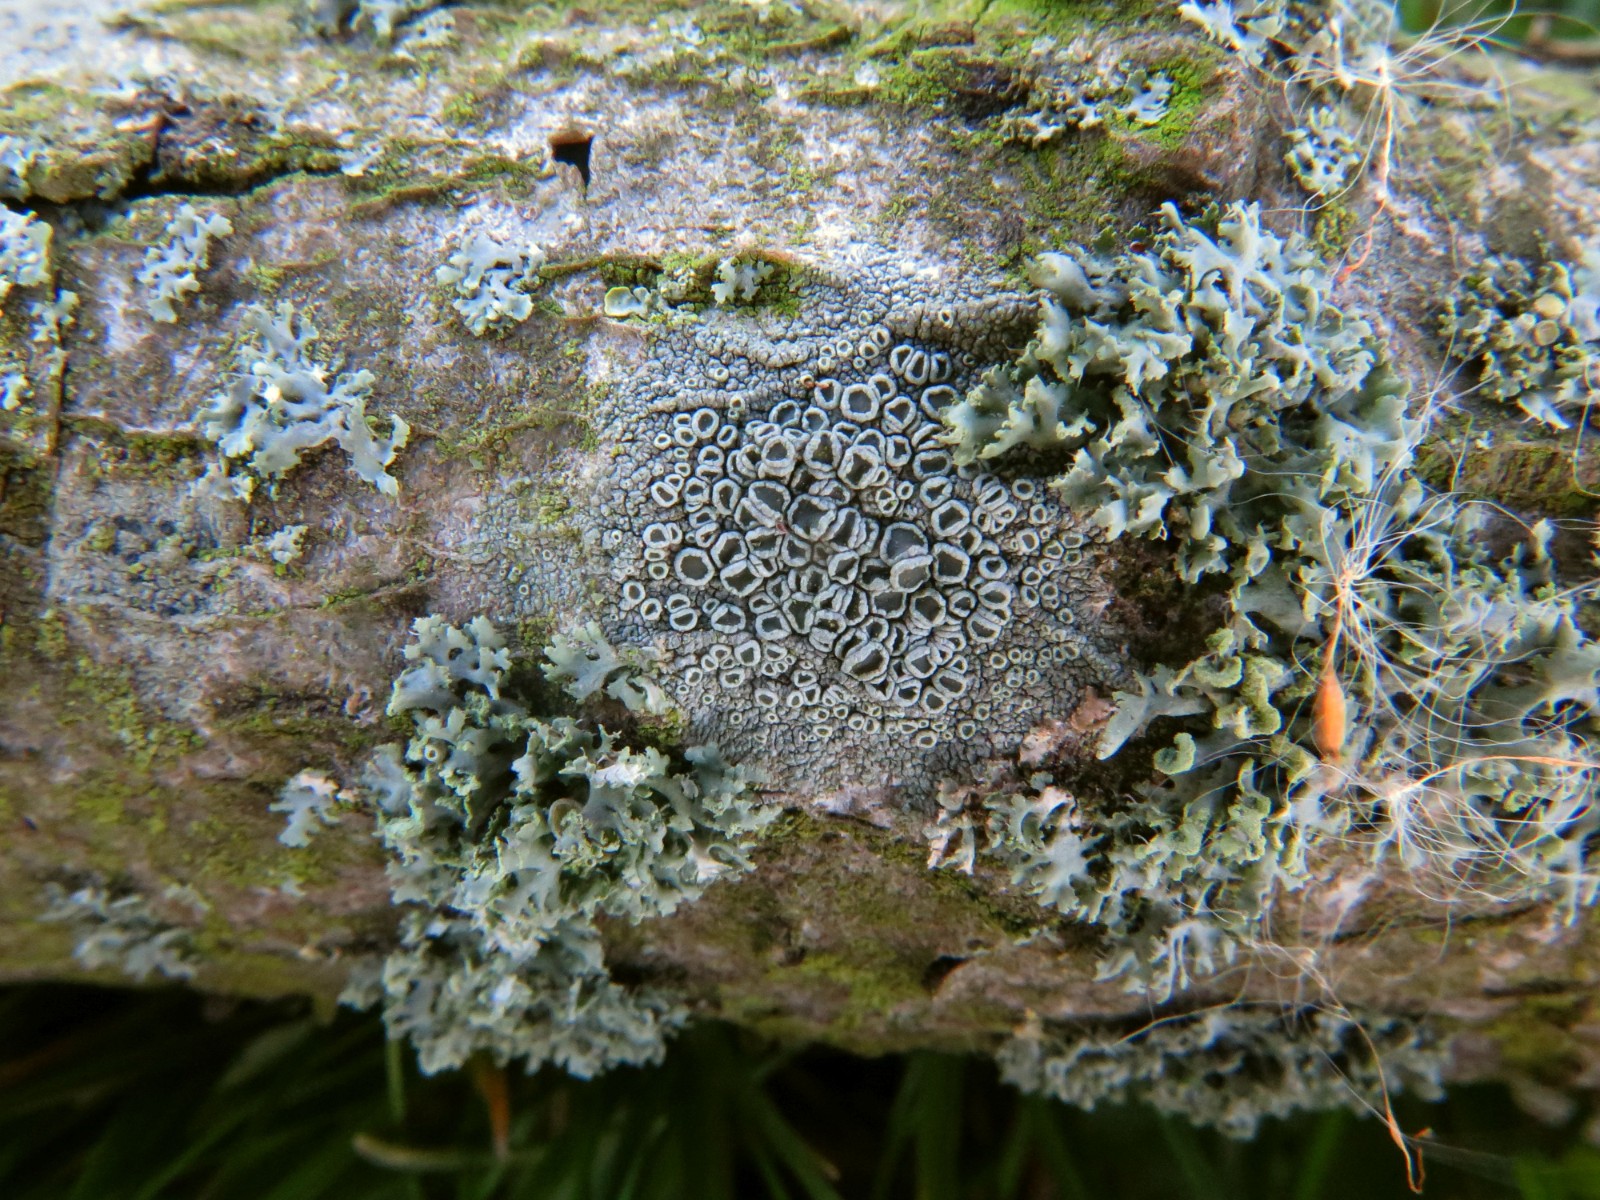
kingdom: Fungi
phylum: Ascomycota
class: Lecanoromycetes
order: Lecanorales
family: Lecanoraceae
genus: Lecanora
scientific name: Lecanora chlarotera
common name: brun kantskivelav
